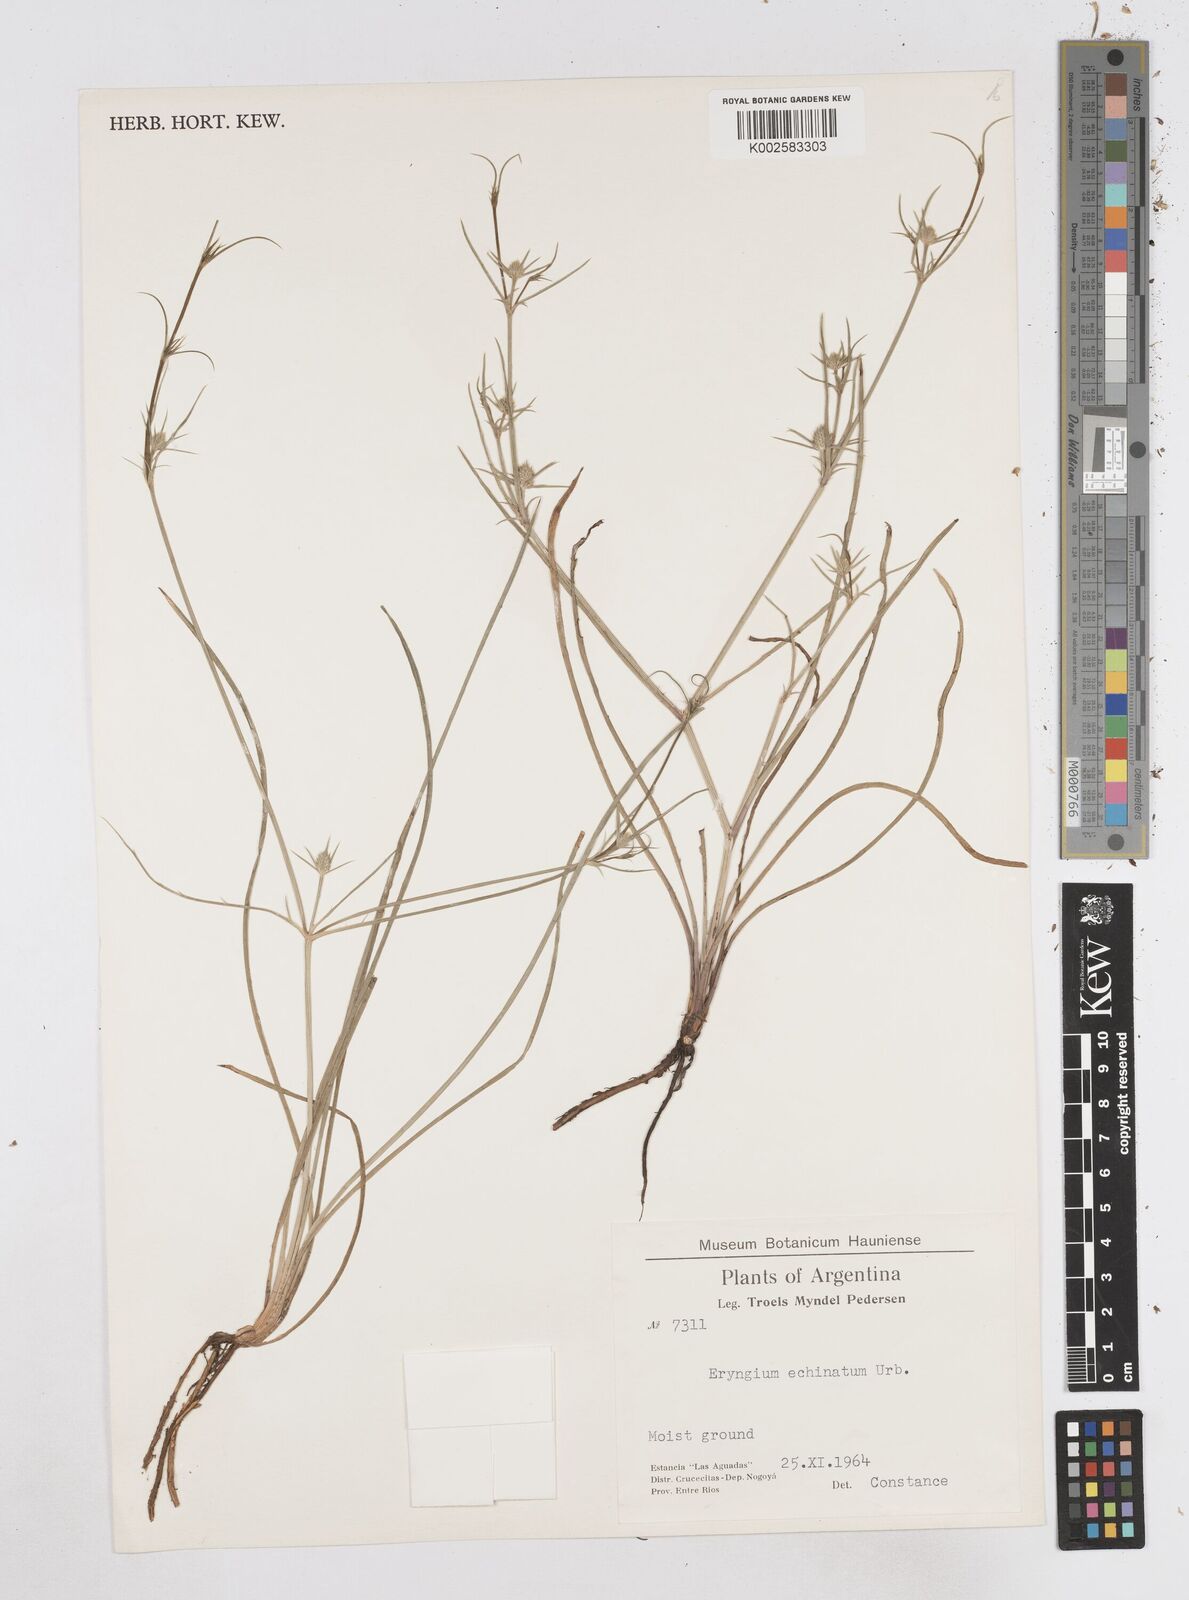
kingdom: Plantae
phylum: Tracheophyta
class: Magnoliopsida
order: Apiales
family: Apiaceae
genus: Eryngium
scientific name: Eryngium echinatum
